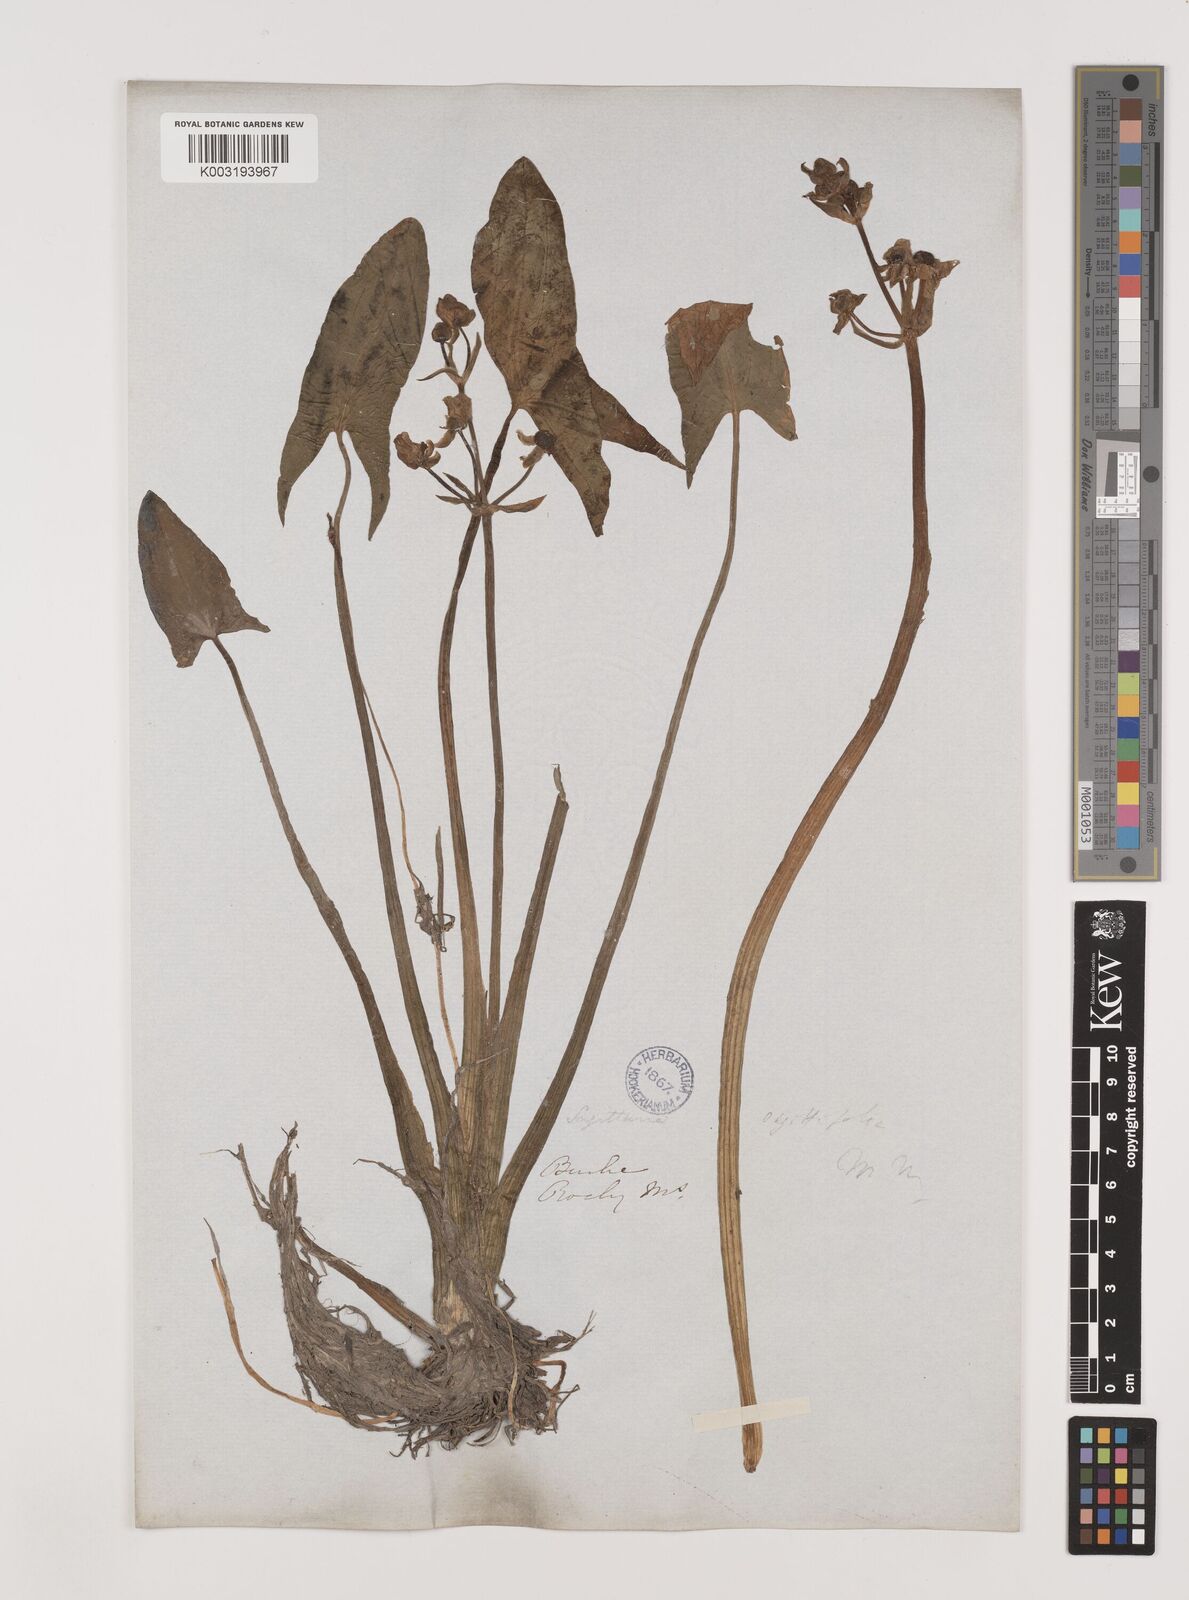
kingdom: Plantae
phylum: Tracheophyta
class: Liliopsida
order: Alismatales
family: Alismataceae
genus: Sagittaria
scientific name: Sagittaria sagittifolia
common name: Arrowhead
